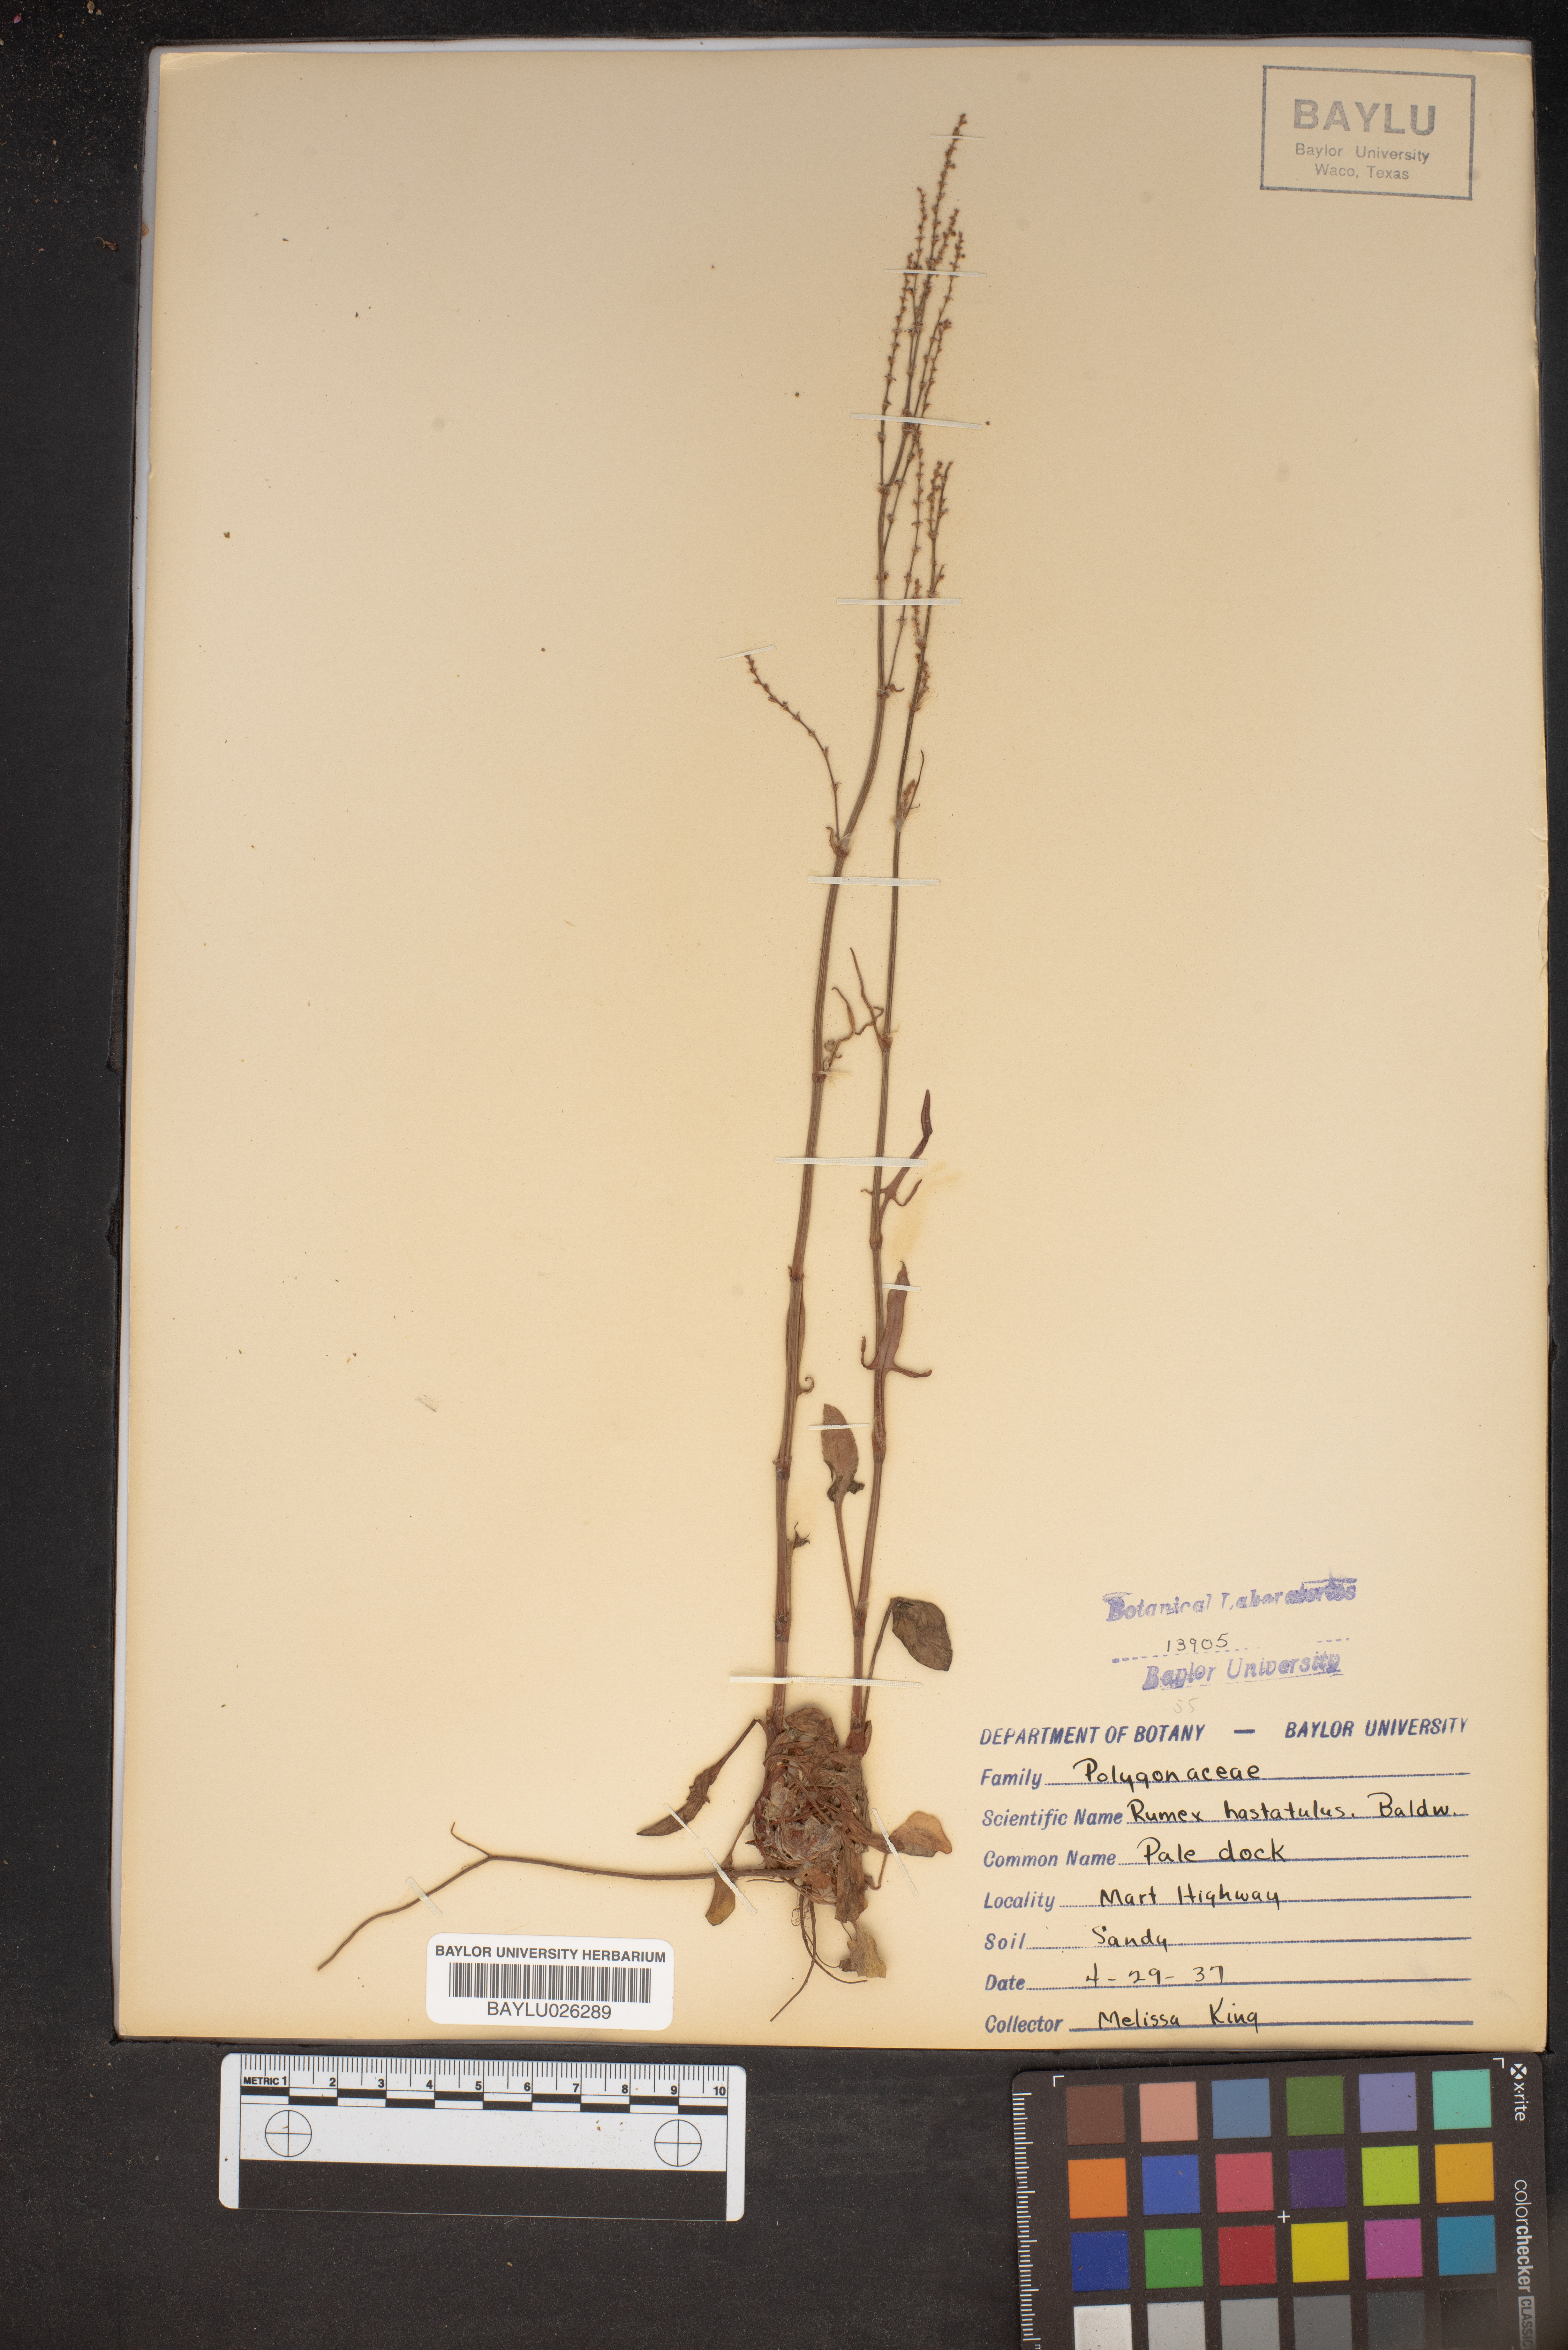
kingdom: Plantae
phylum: Tracheophyta
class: Magnoliopsida
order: Caryophyllales
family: Polygonaceae
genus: Rumex
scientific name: Rumex hastatulus
